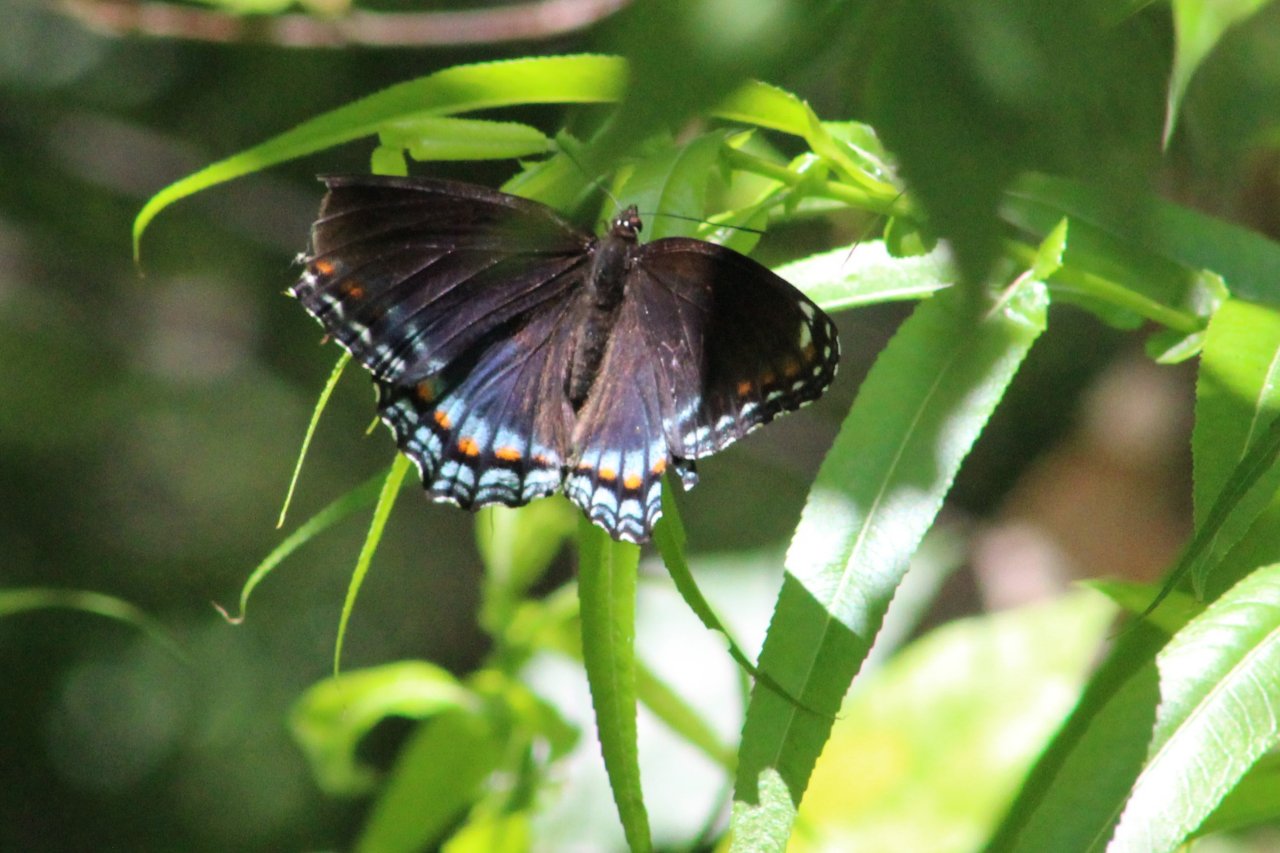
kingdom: Animalia
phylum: Arthropoda
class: Insecta
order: Lepidoptera
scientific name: Lepidoptera
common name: Butterflies
